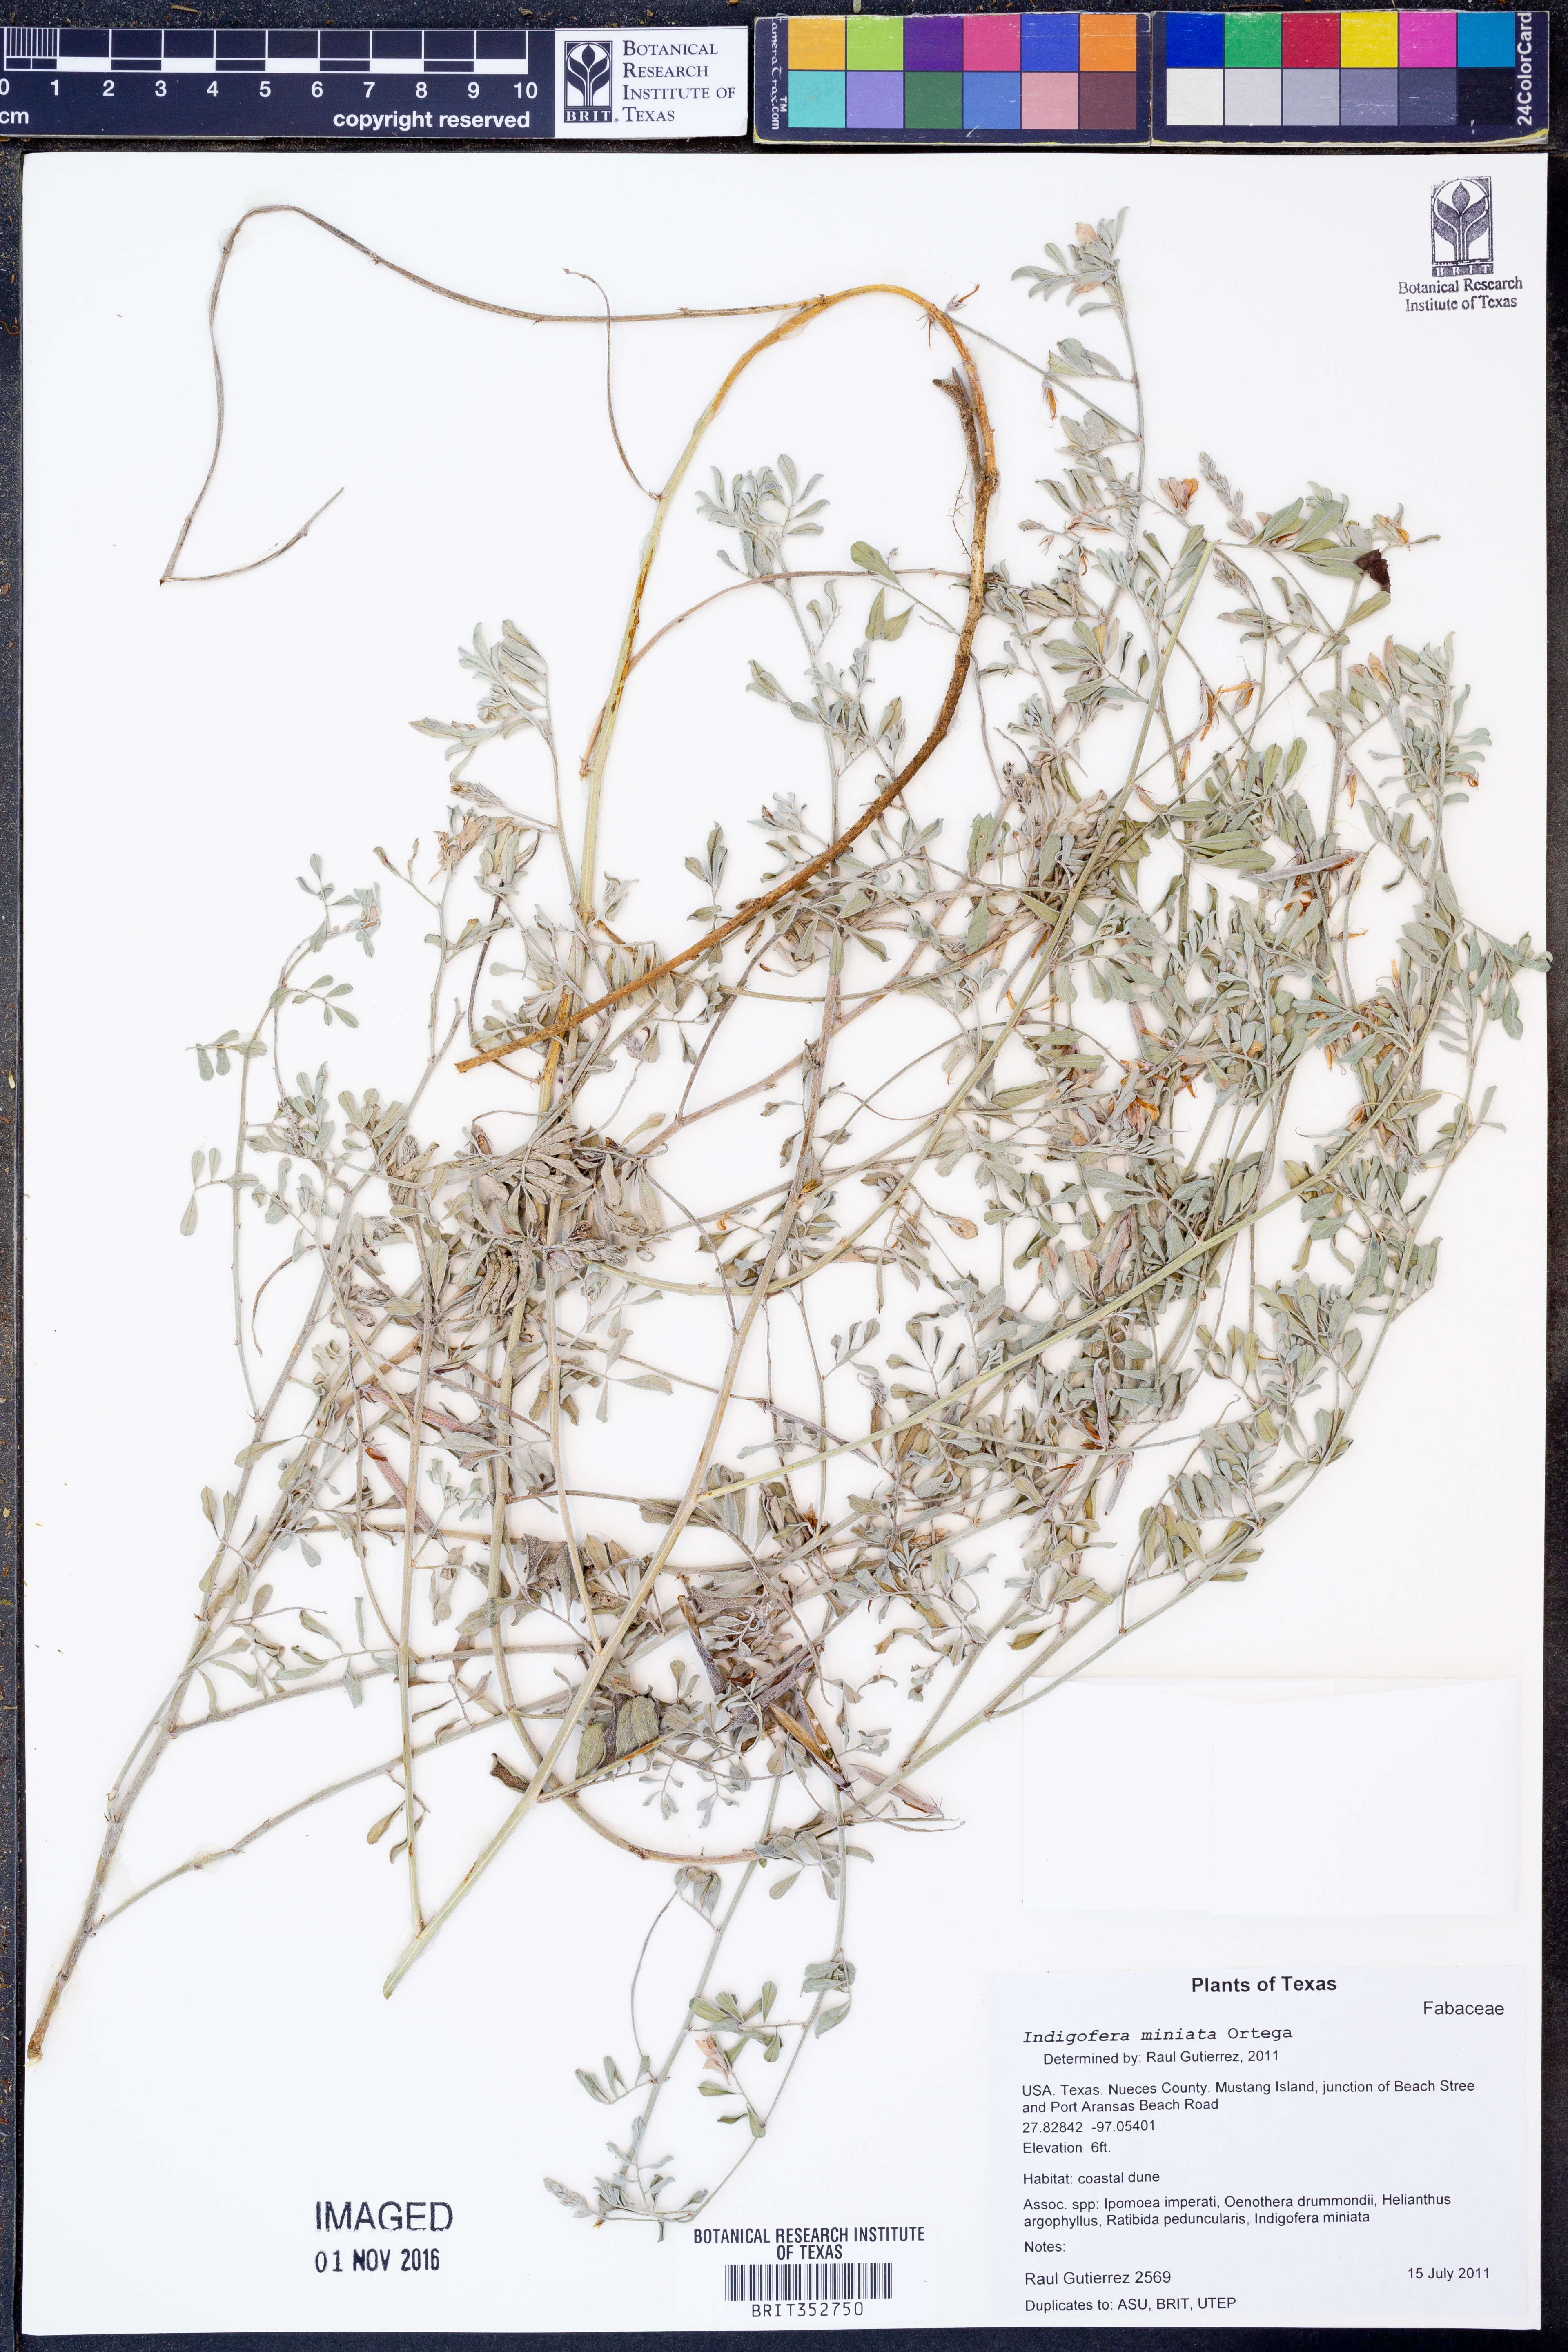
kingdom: Plantae
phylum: Tracheophyta
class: Magnoliopsida
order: Fabales
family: Fabaceae
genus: Indigofera
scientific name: Indigofera miniata
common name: Coast indigo
